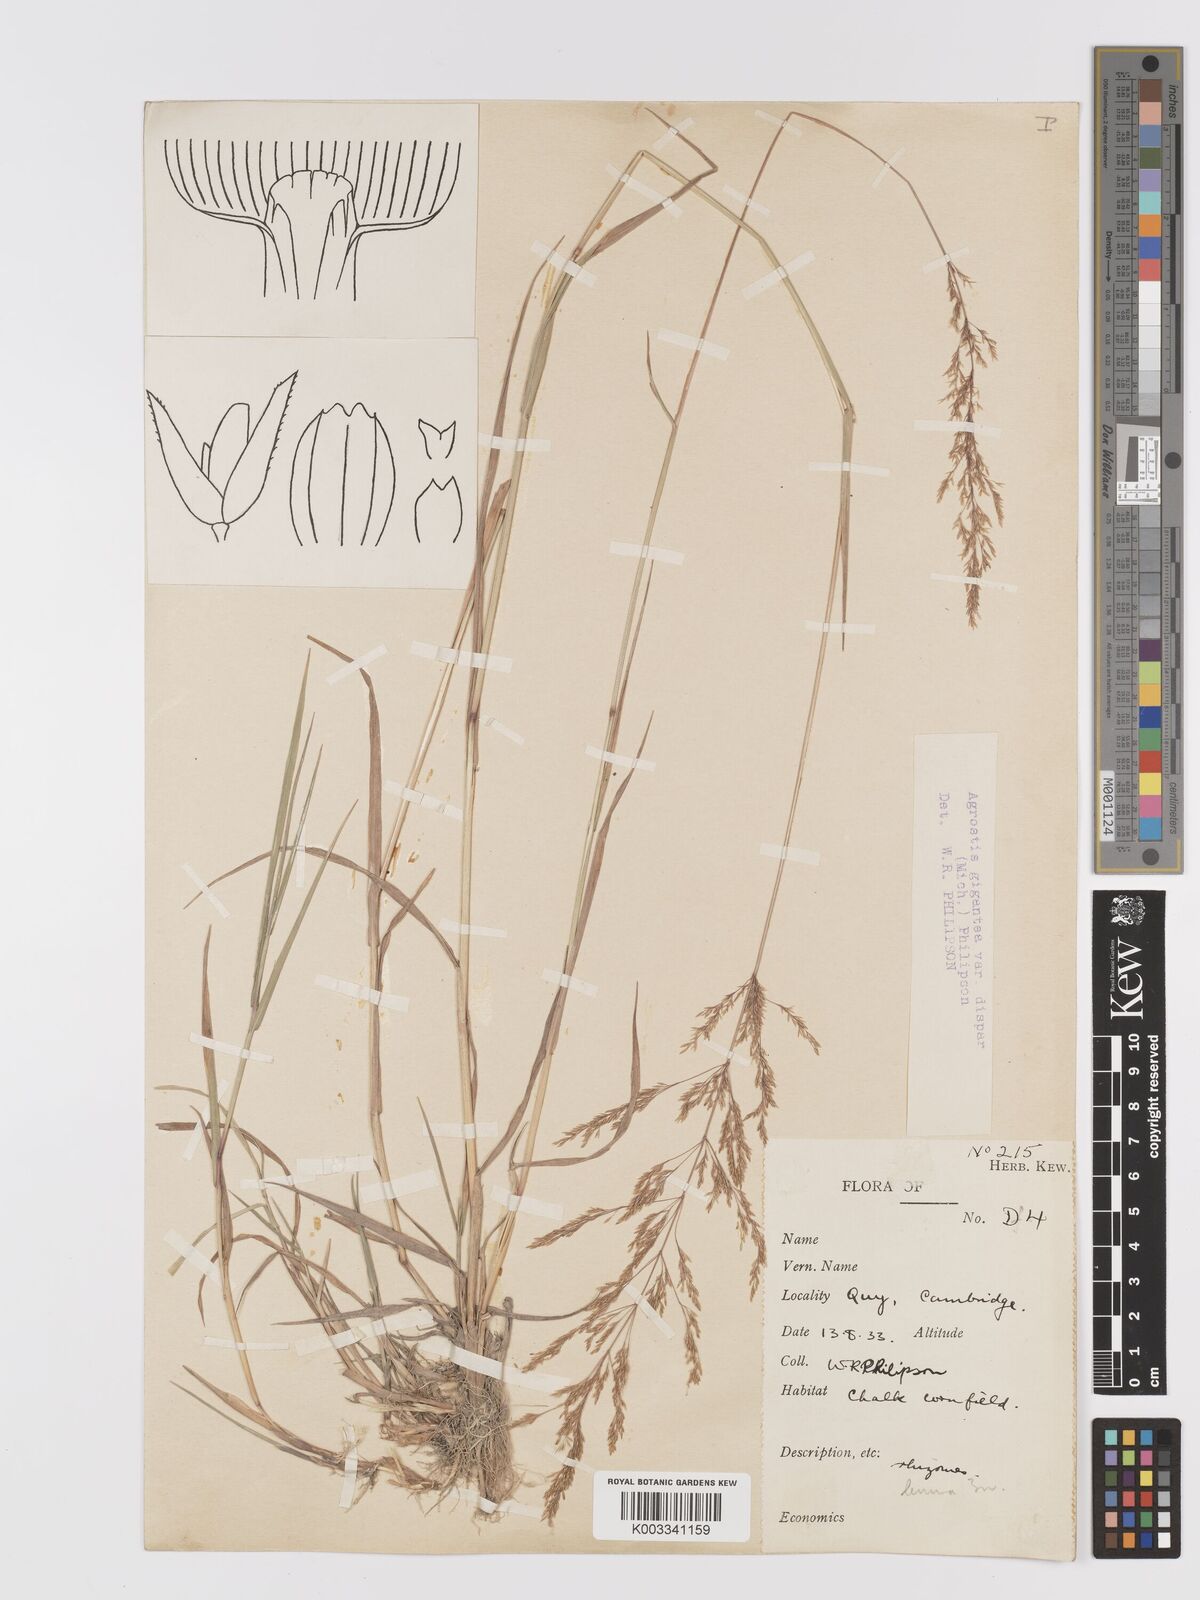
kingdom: Plantae
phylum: Tracheophyta
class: Liliopsida
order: Poales
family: Poaceae
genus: Agrostis
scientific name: Agrostis gigantea
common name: Black bent
